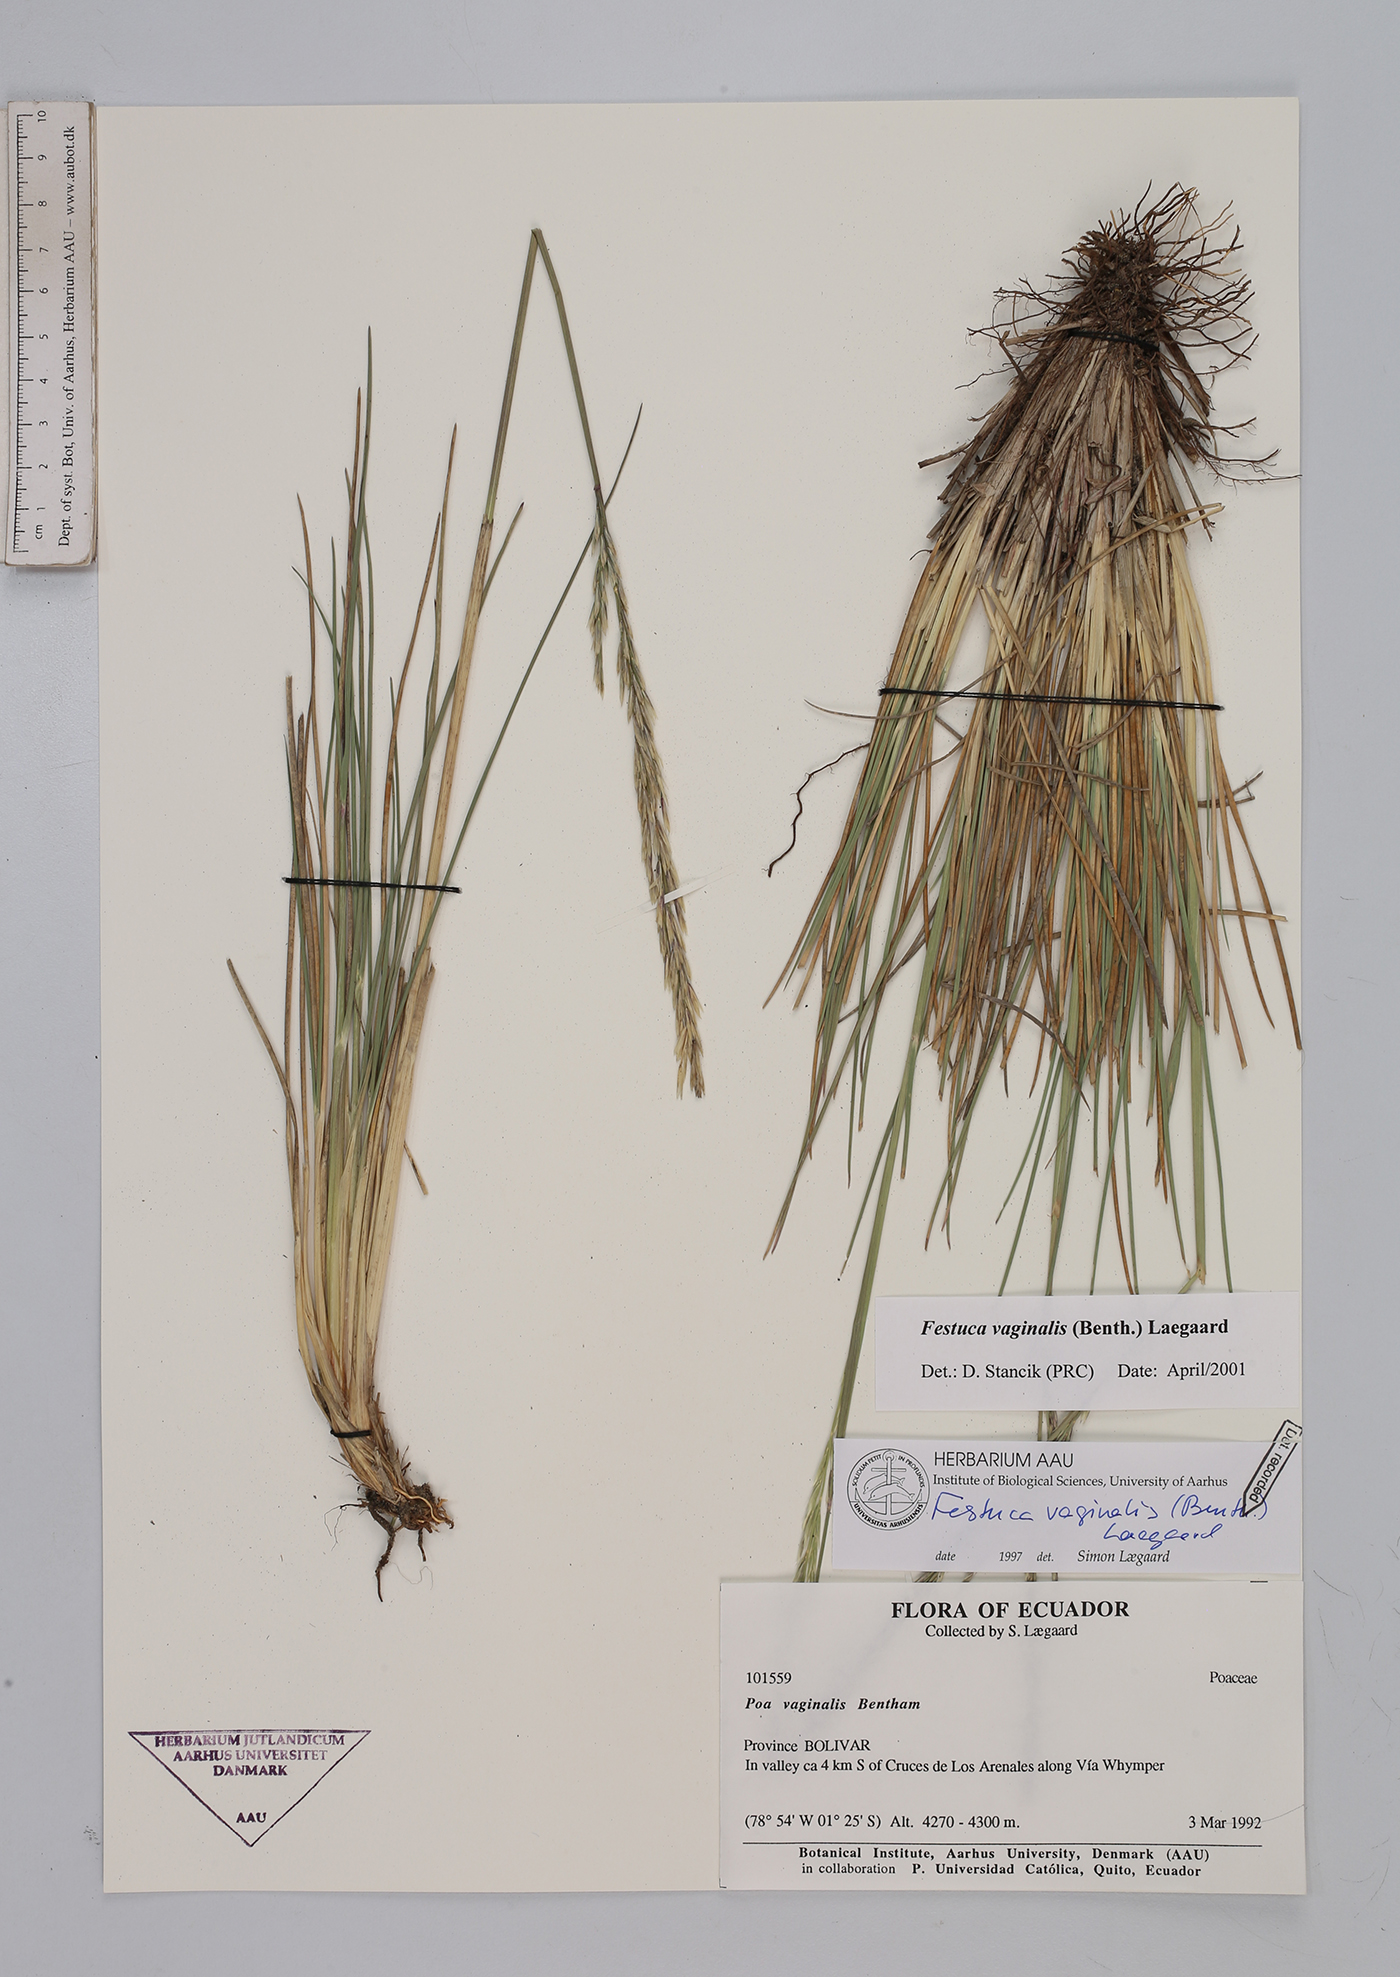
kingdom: Plantae
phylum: Tracheophyta
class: Liliopsida
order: Poales
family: Poaceae
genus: Festuca
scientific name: Festuca vaginalis
